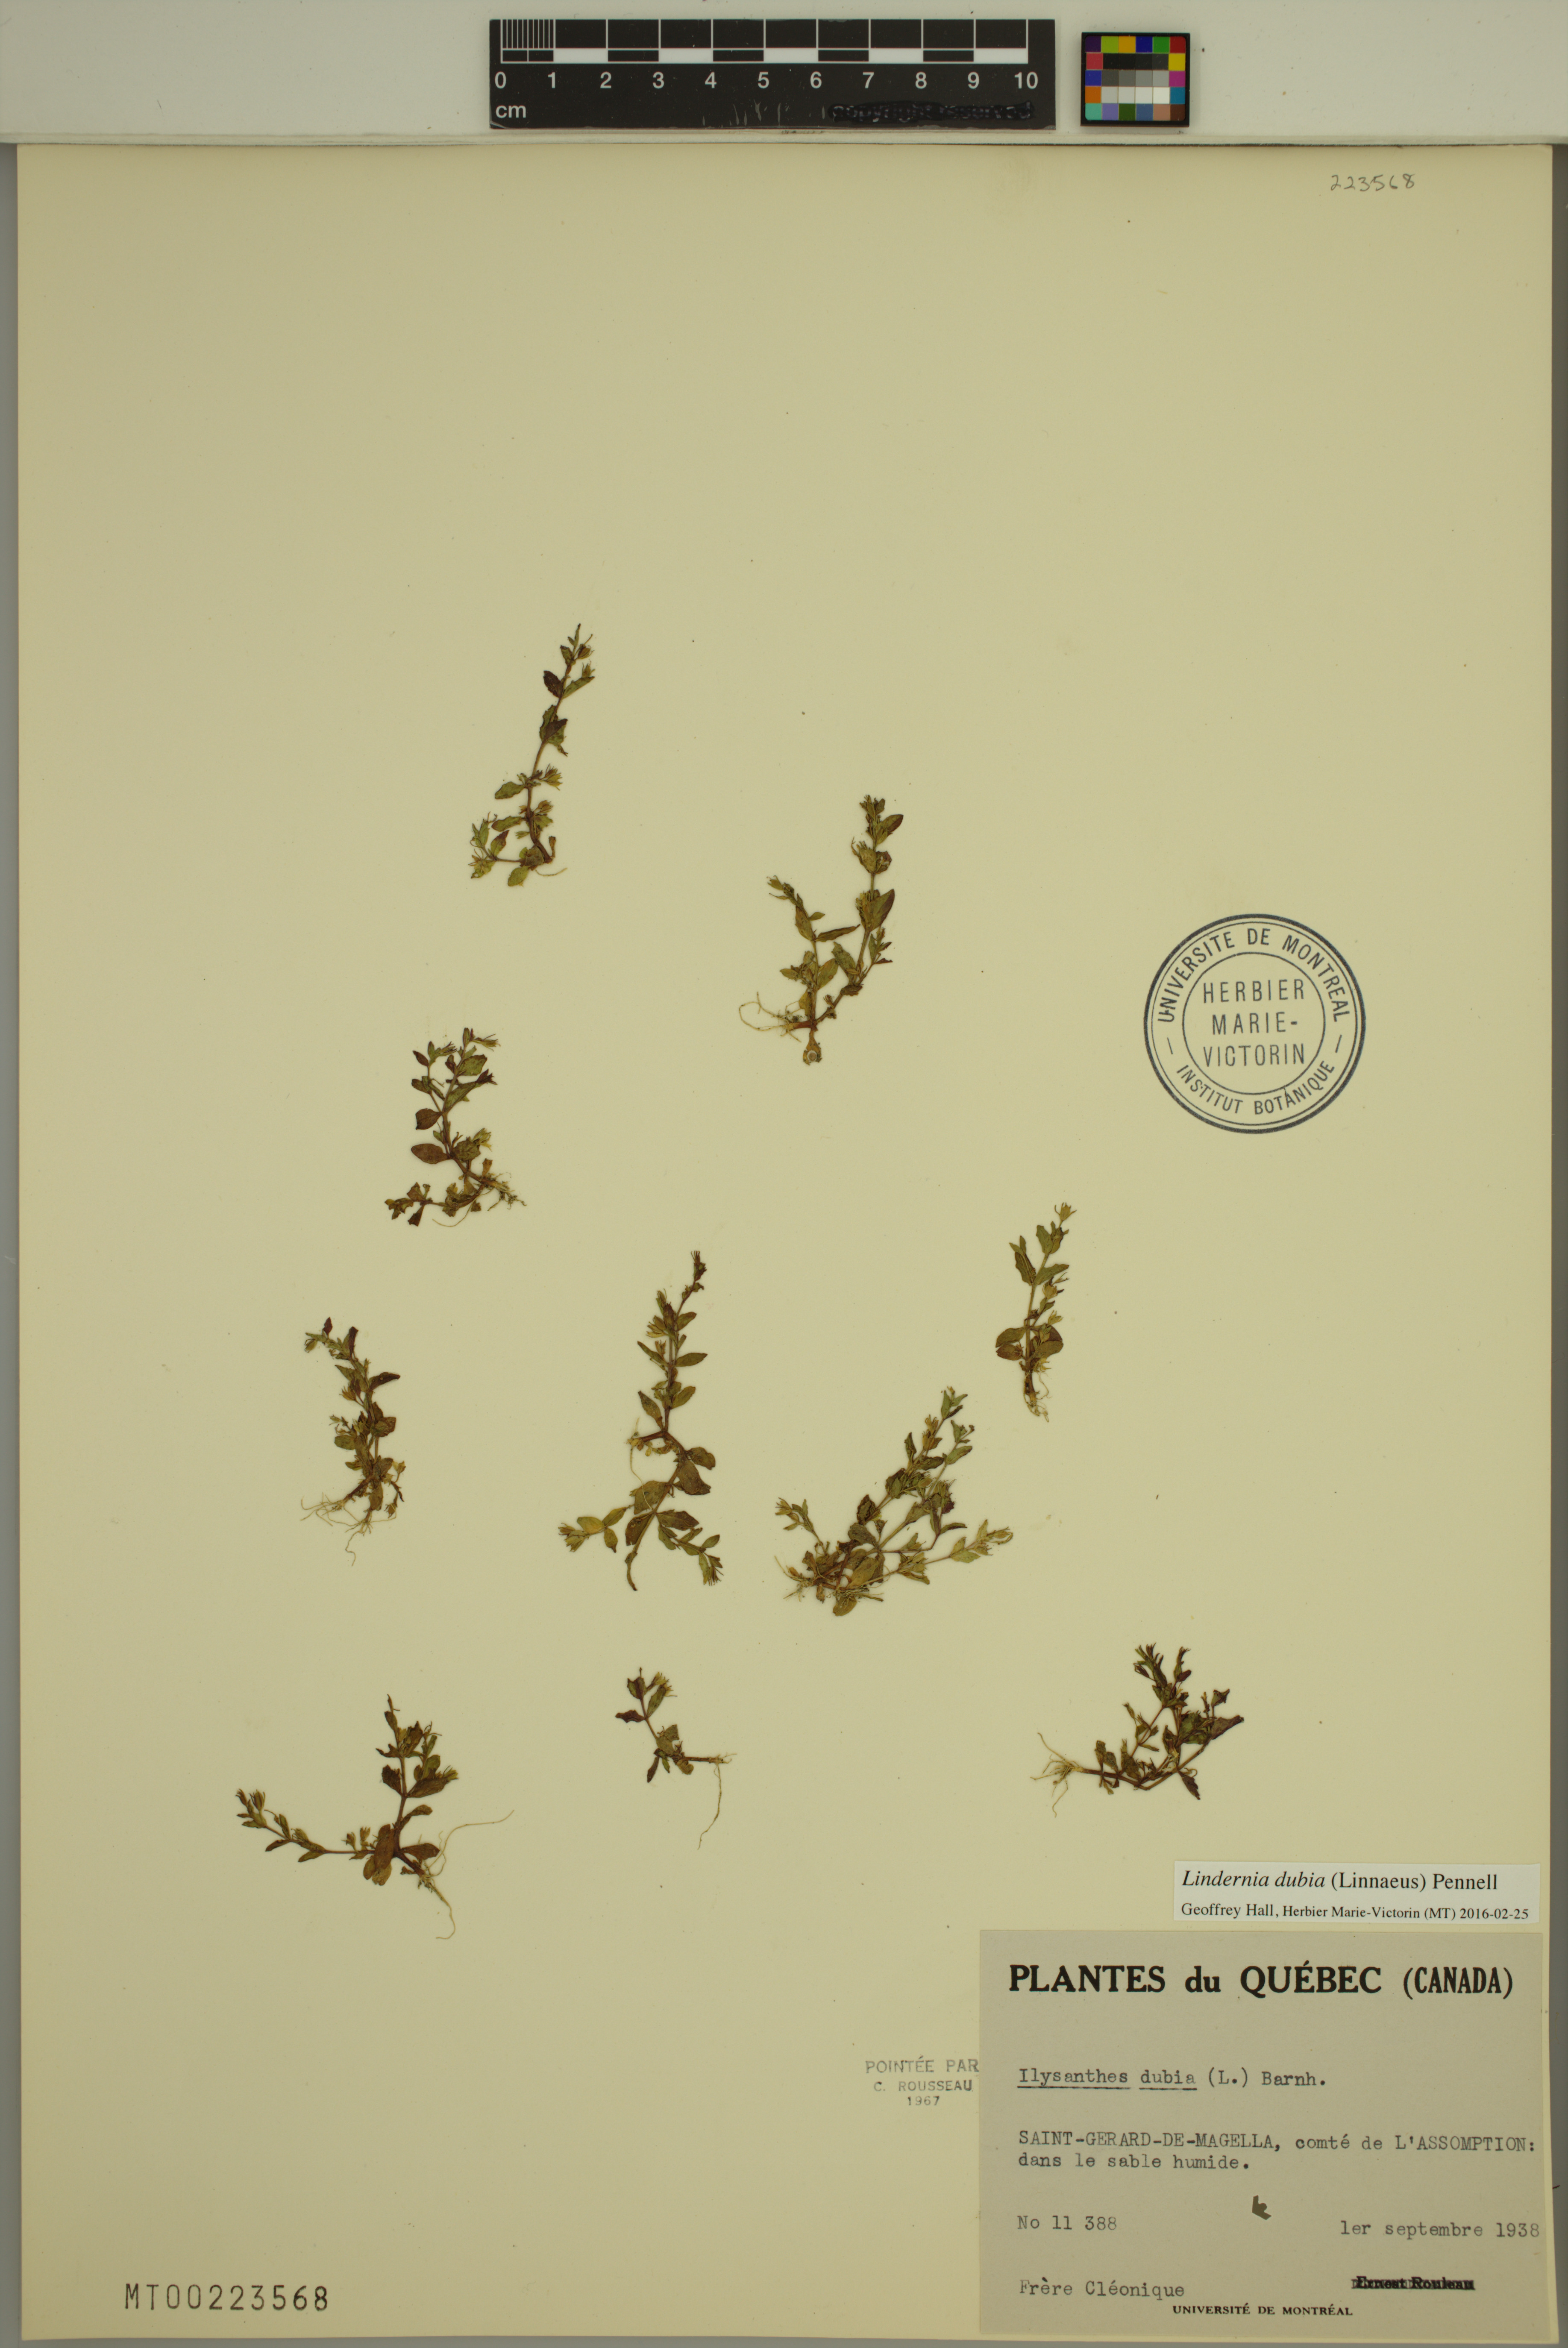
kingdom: Plantae
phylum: Tracheophyta
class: Magnoliopsida
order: Lamiales
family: Linderniaceae
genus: Lindernia
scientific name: Lindernia dubia
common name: Annual false pimpernel
